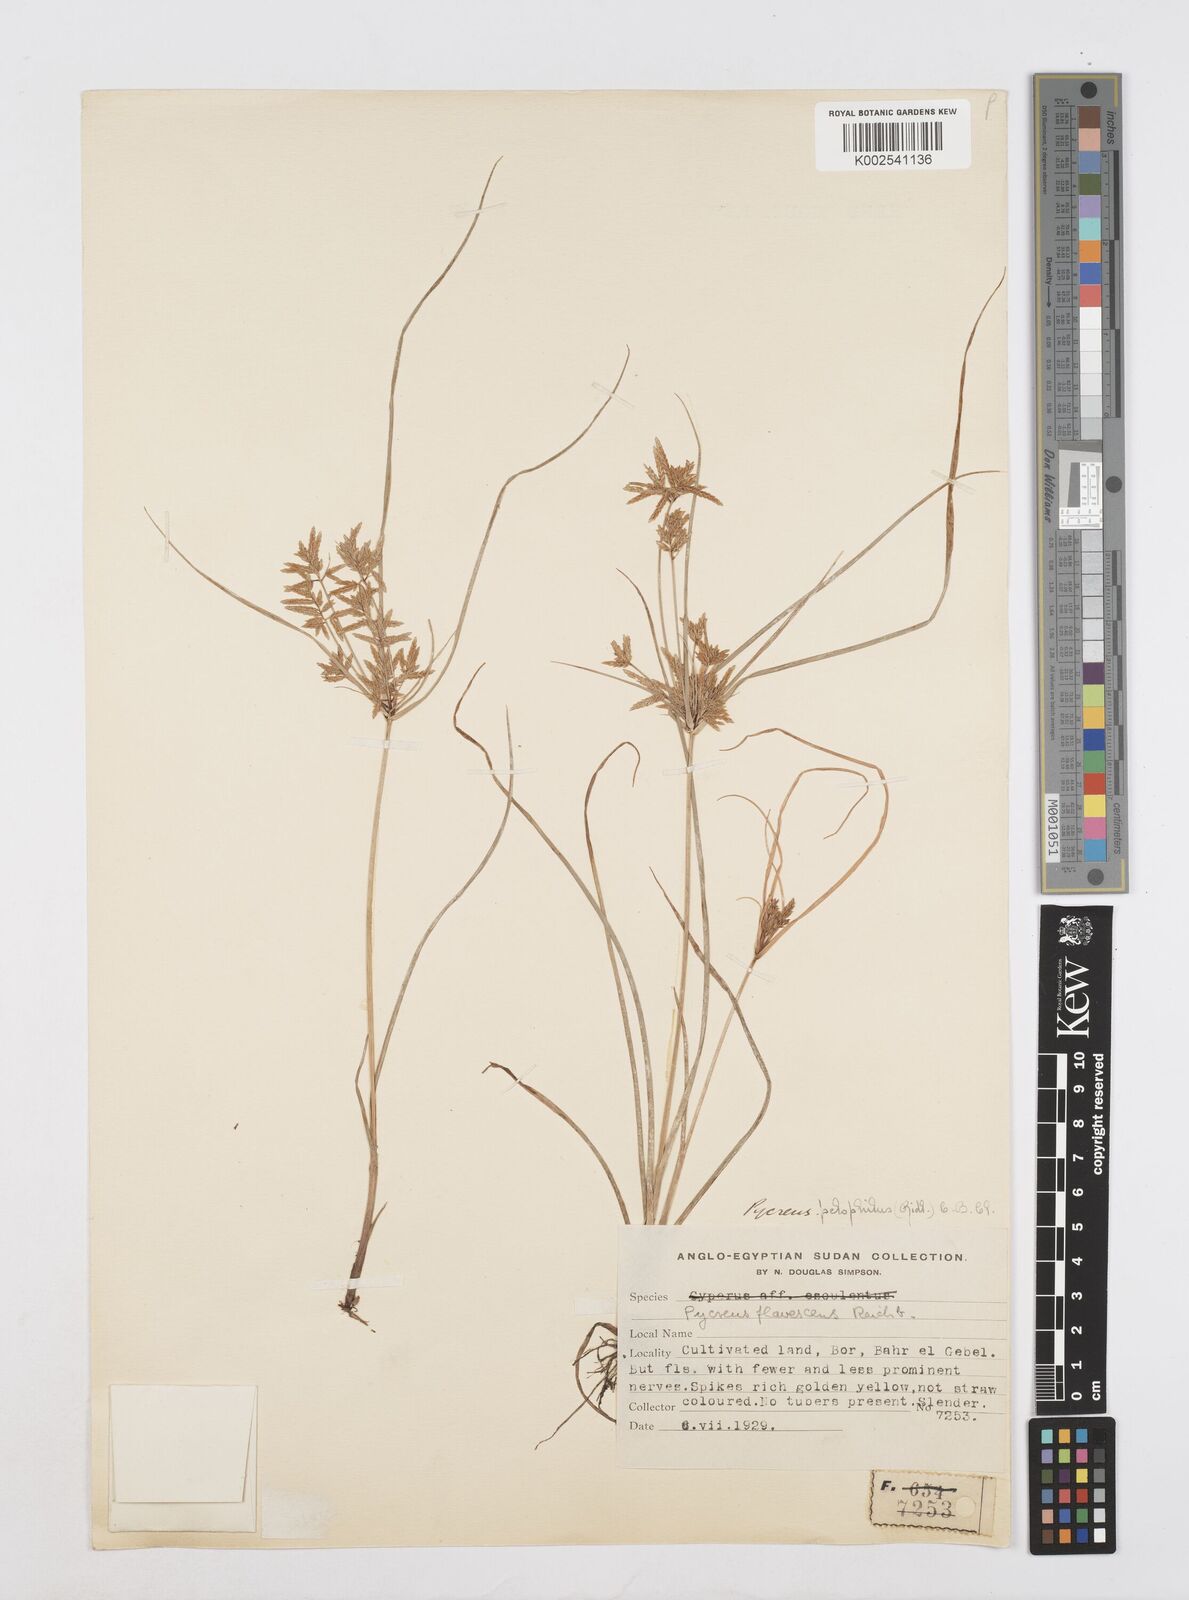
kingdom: Plantae
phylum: Tracheophyta
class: Liliopsida
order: Poales
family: Cyperaceae
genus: Cyperus
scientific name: Cyperus pelophilus
